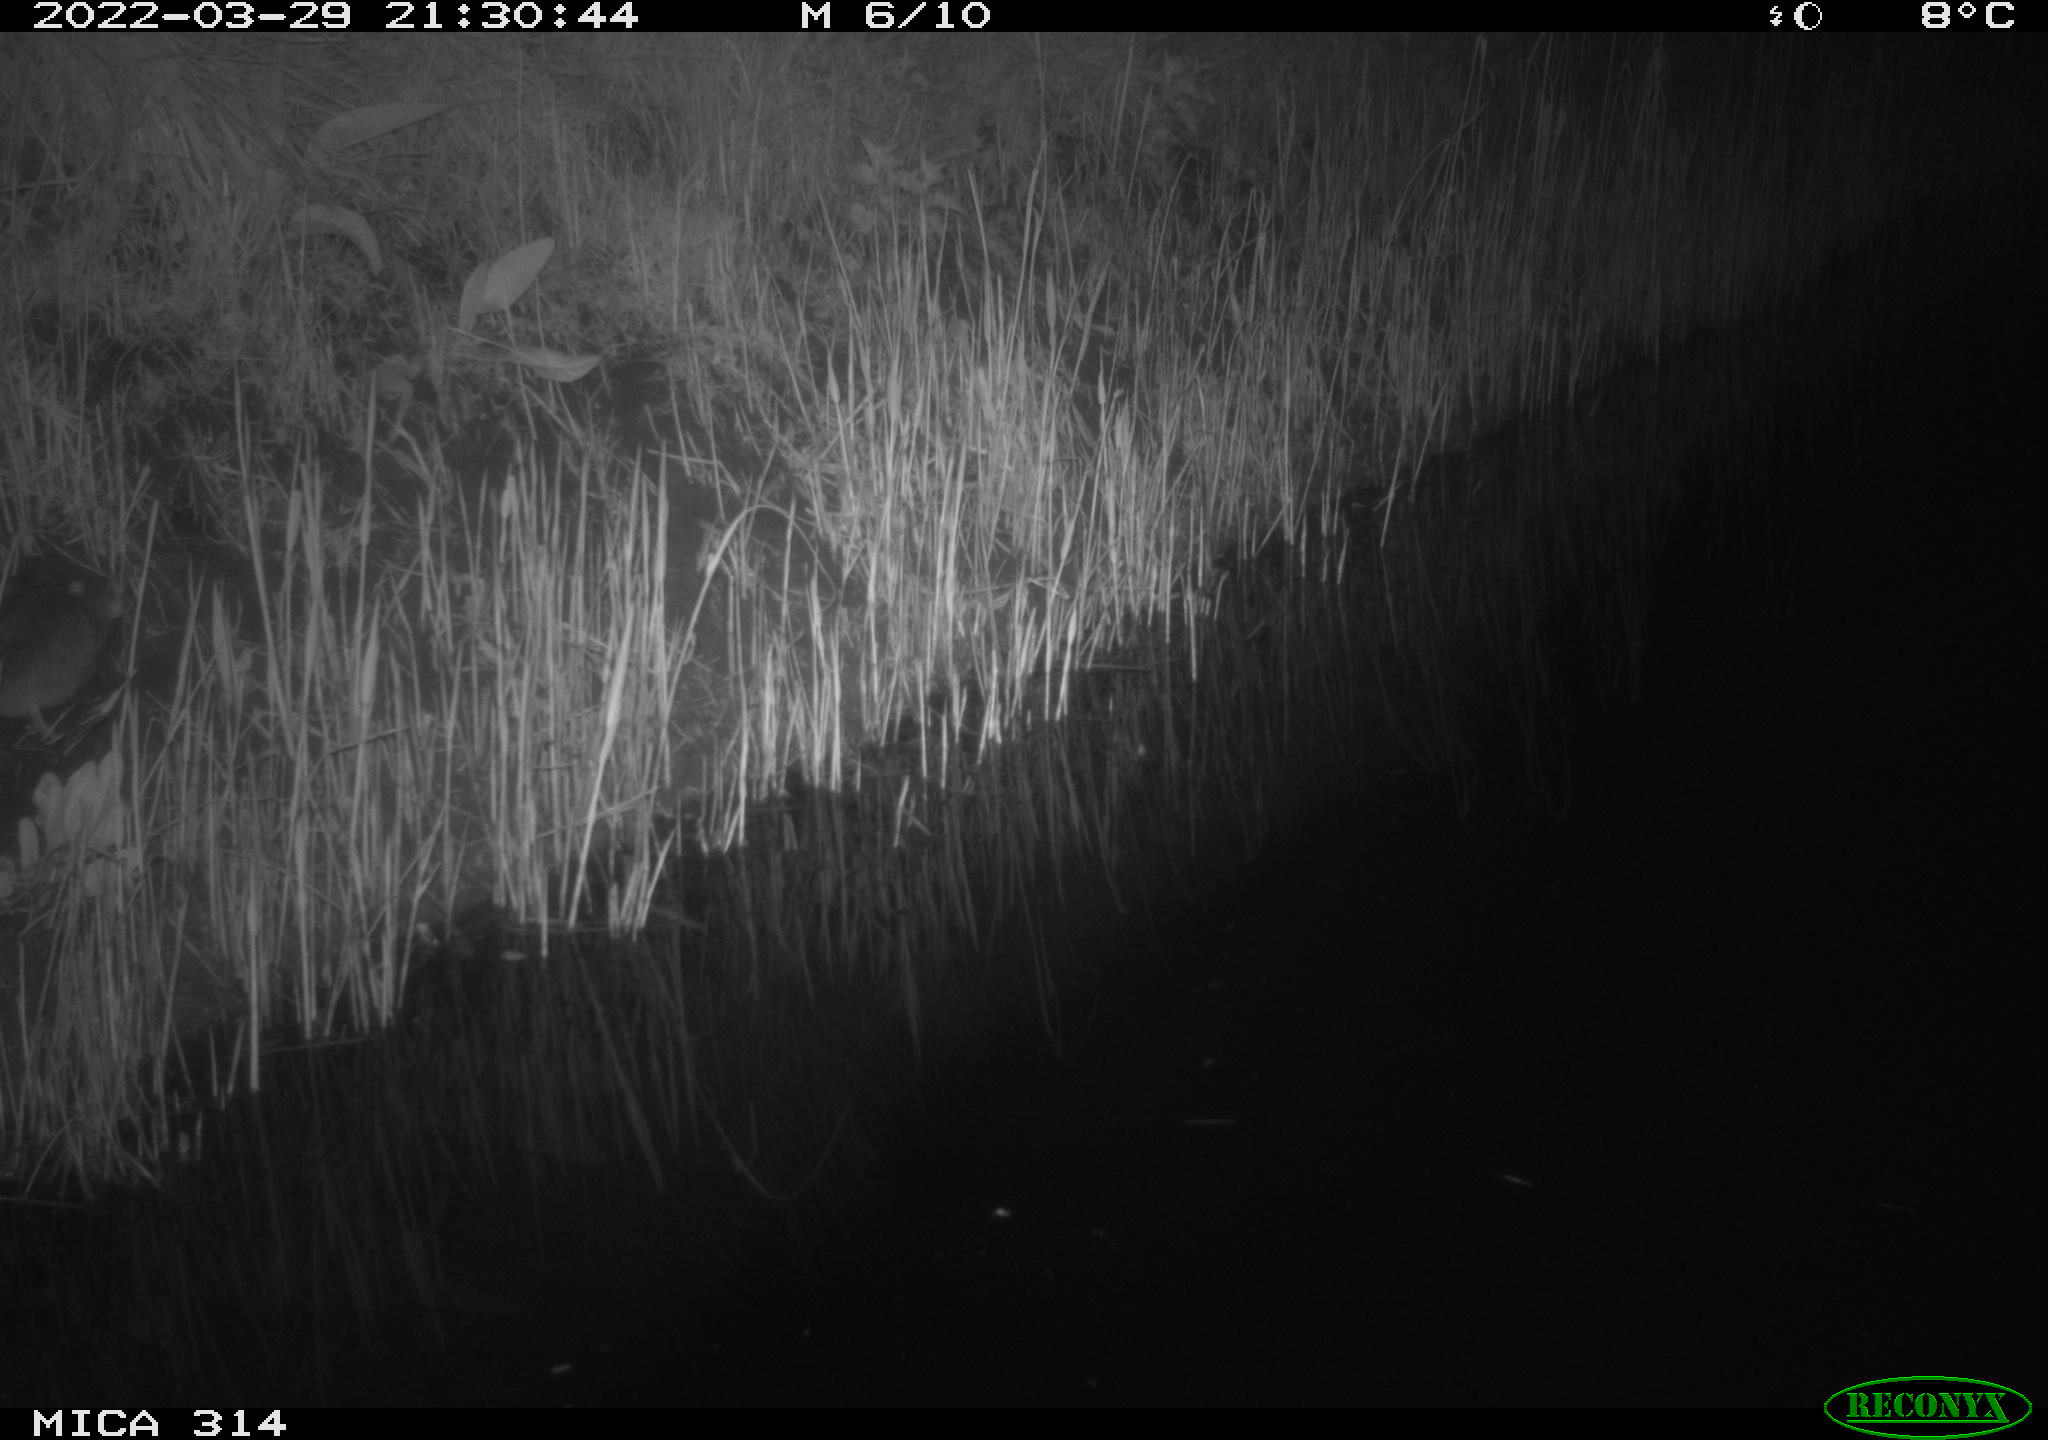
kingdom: Animalia
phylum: Chordata
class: Mammalia
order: Rodentia
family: Muridae
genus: Rattus
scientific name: Rattus norvegicus
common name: Brown rat
